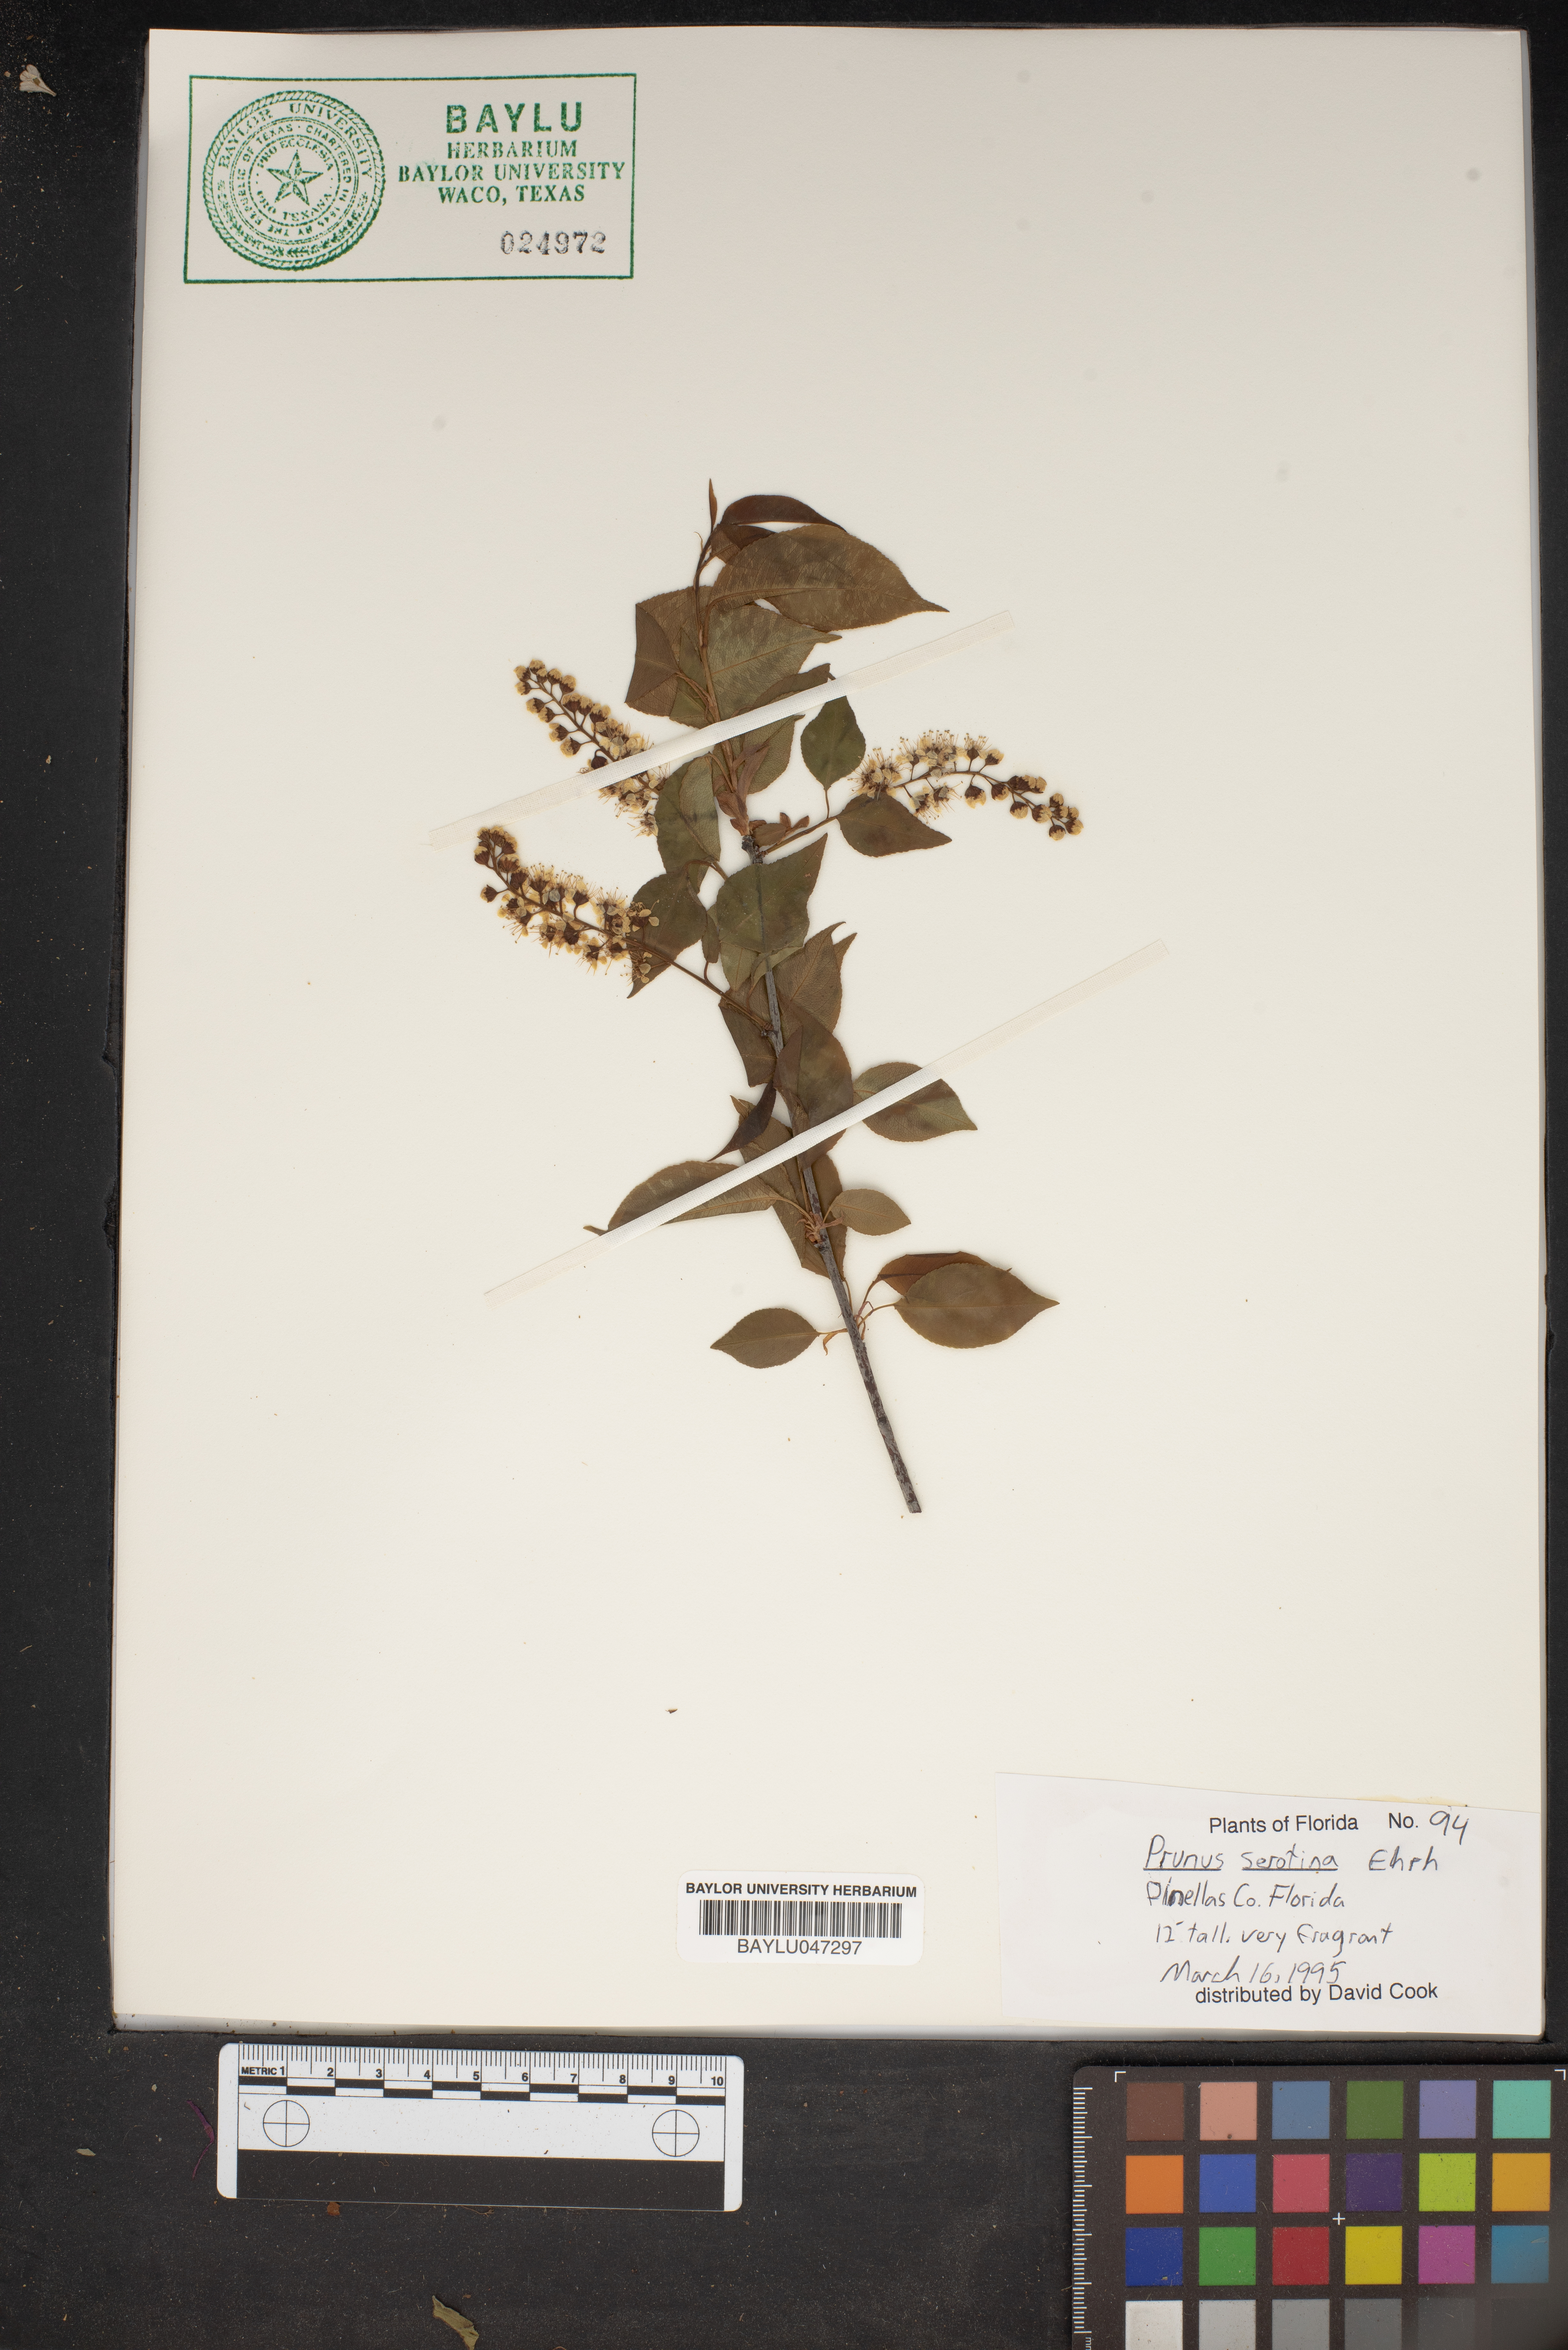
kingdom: Plantae
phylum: Tracheophyta
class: Magnoliopsida
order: Rosales
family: Rosaceae
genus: Prunus
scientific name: Prunus serotina
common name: Black cherry
